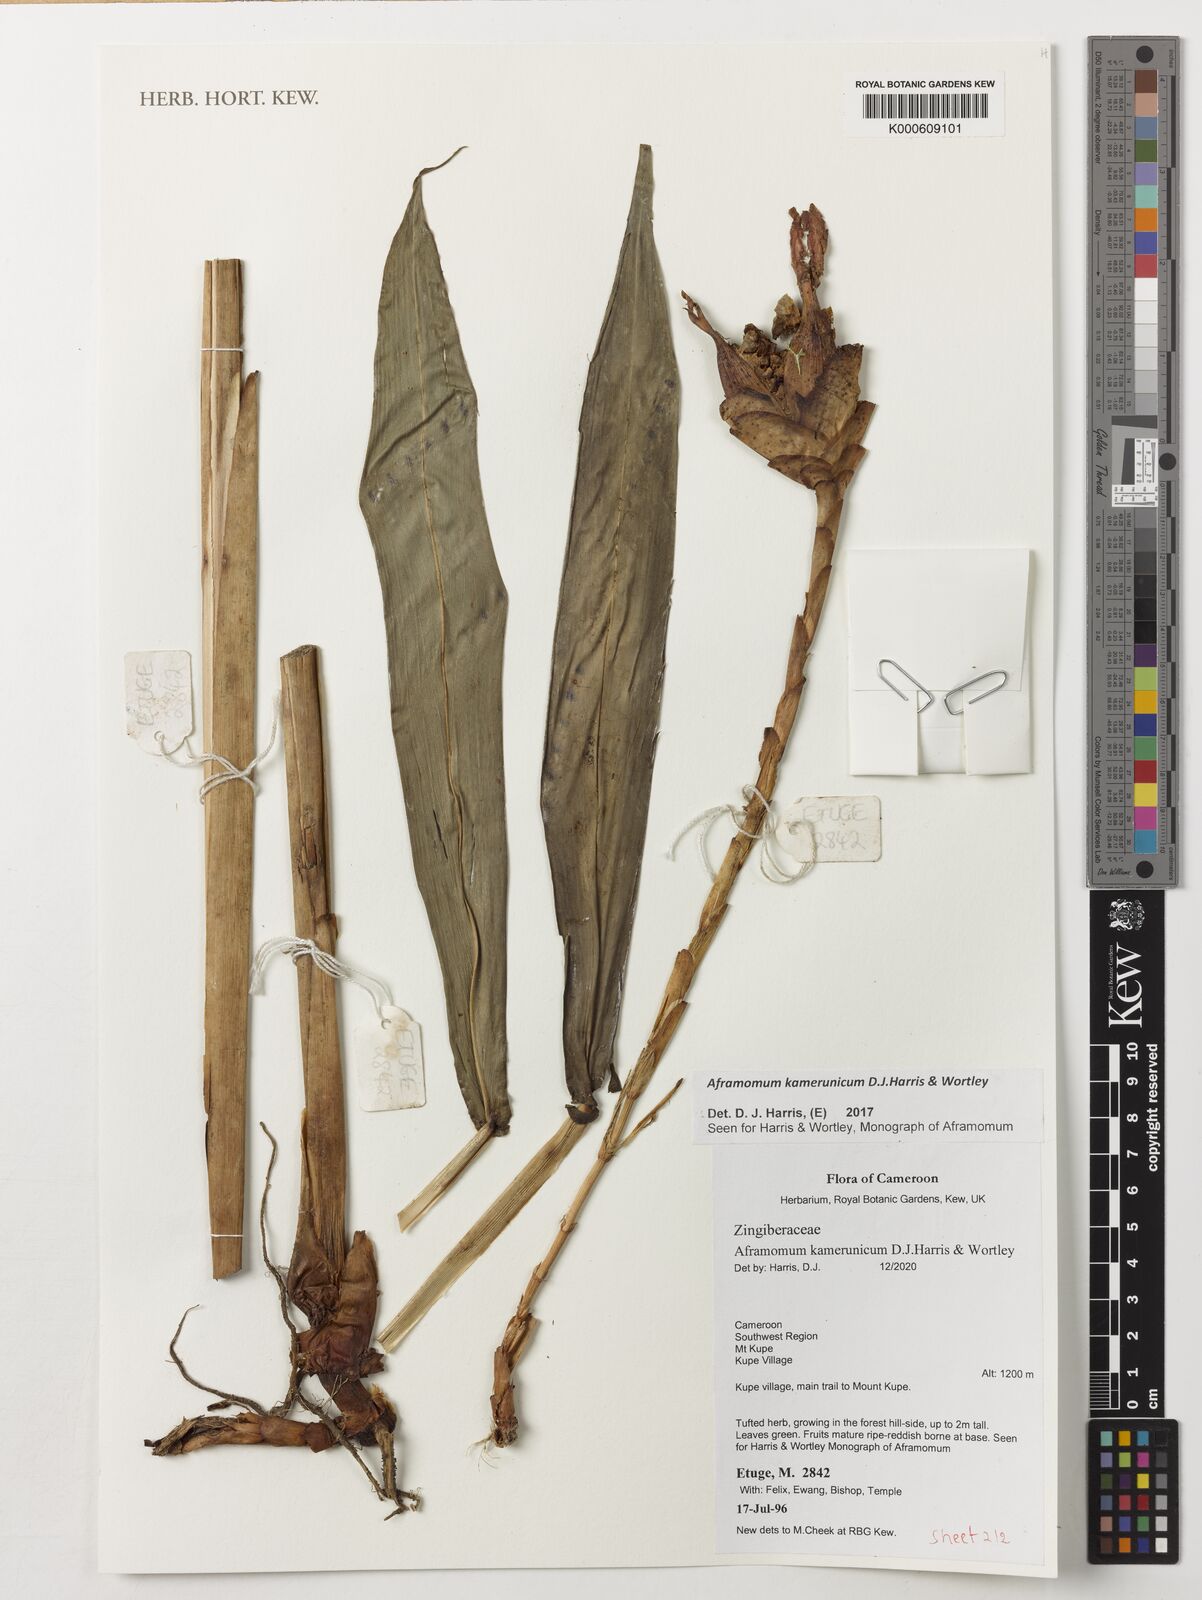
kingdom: Plantae
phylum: Tracheophyta
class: Liliopsida
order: Zingiberales
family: Zingiberaceae
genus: Aframomum
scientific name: Aframomum kamerunicum
